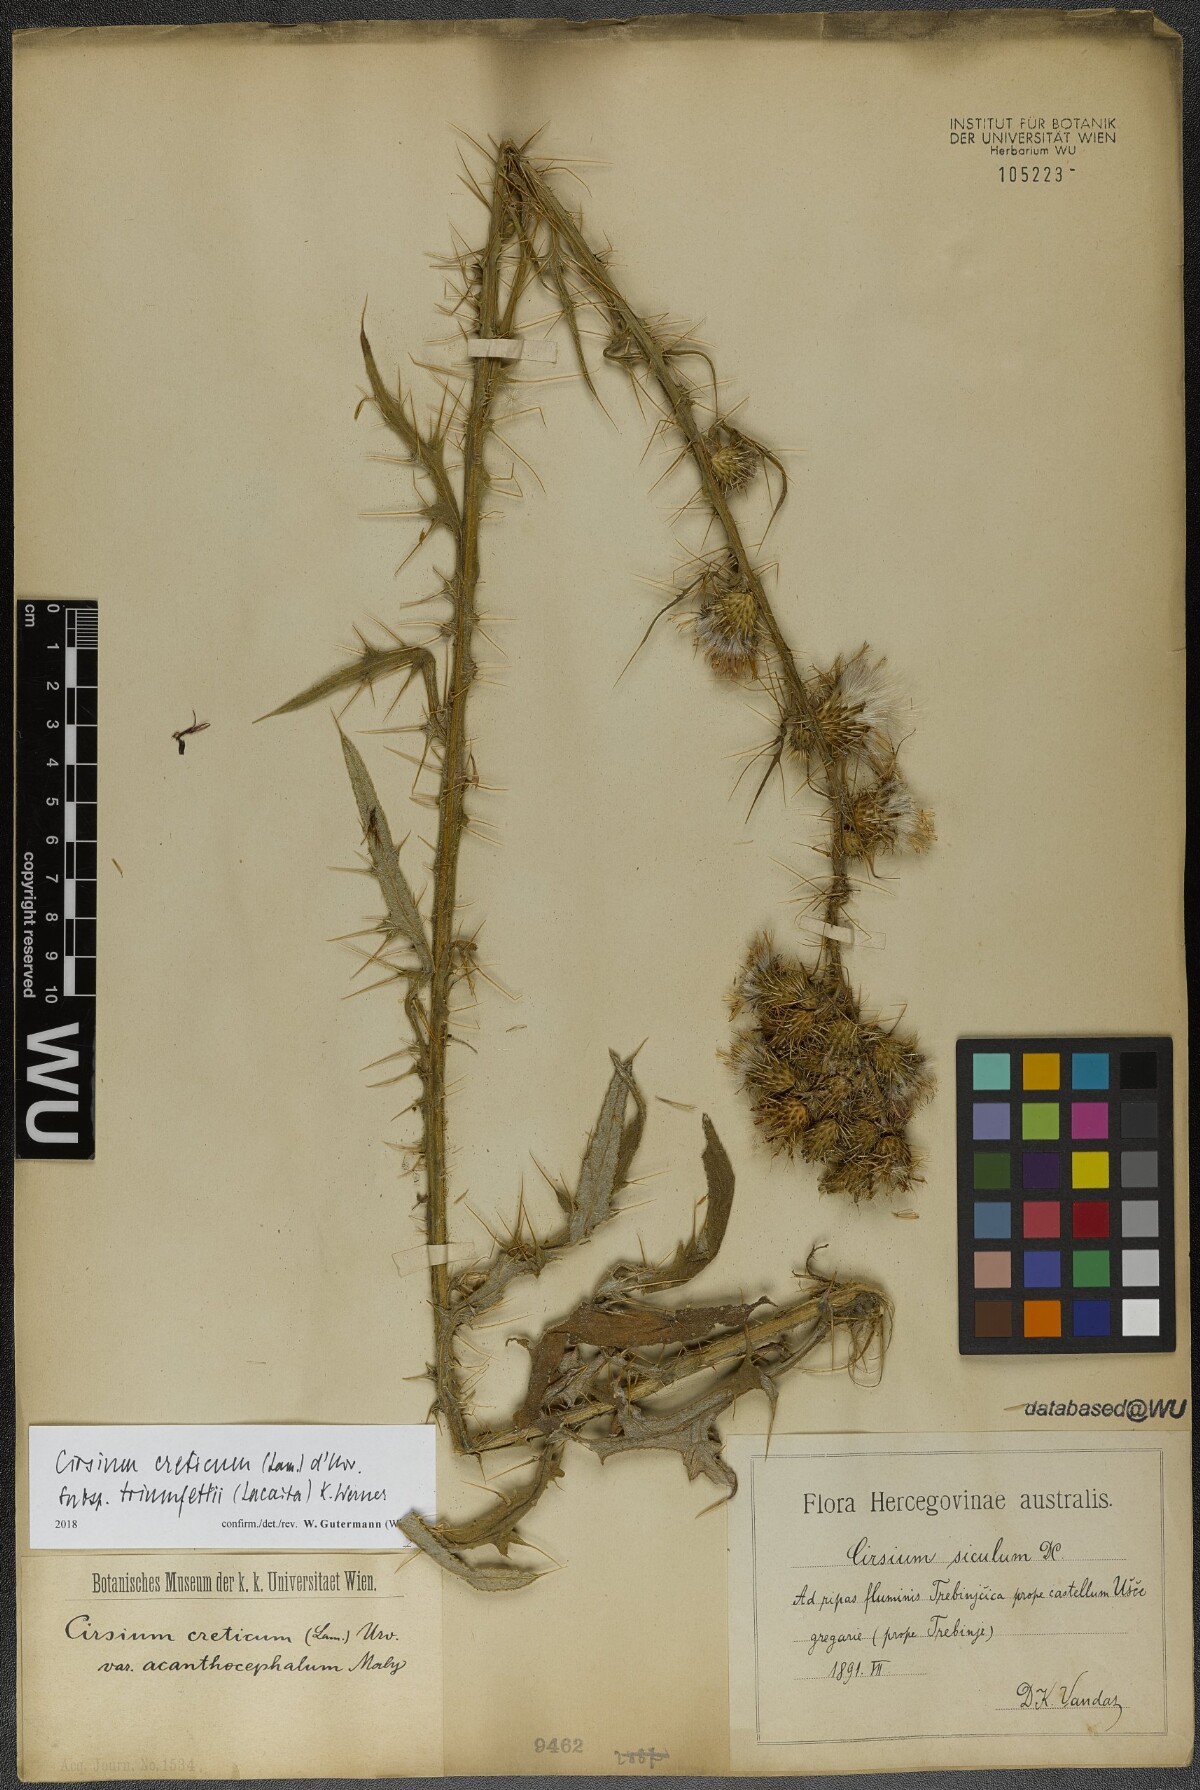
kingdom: Plantae
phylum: Tracheophyta
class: Magnoliopsida
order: Asterales
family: Asteraceae
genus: Cirsium
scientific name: Cirsium creticum
